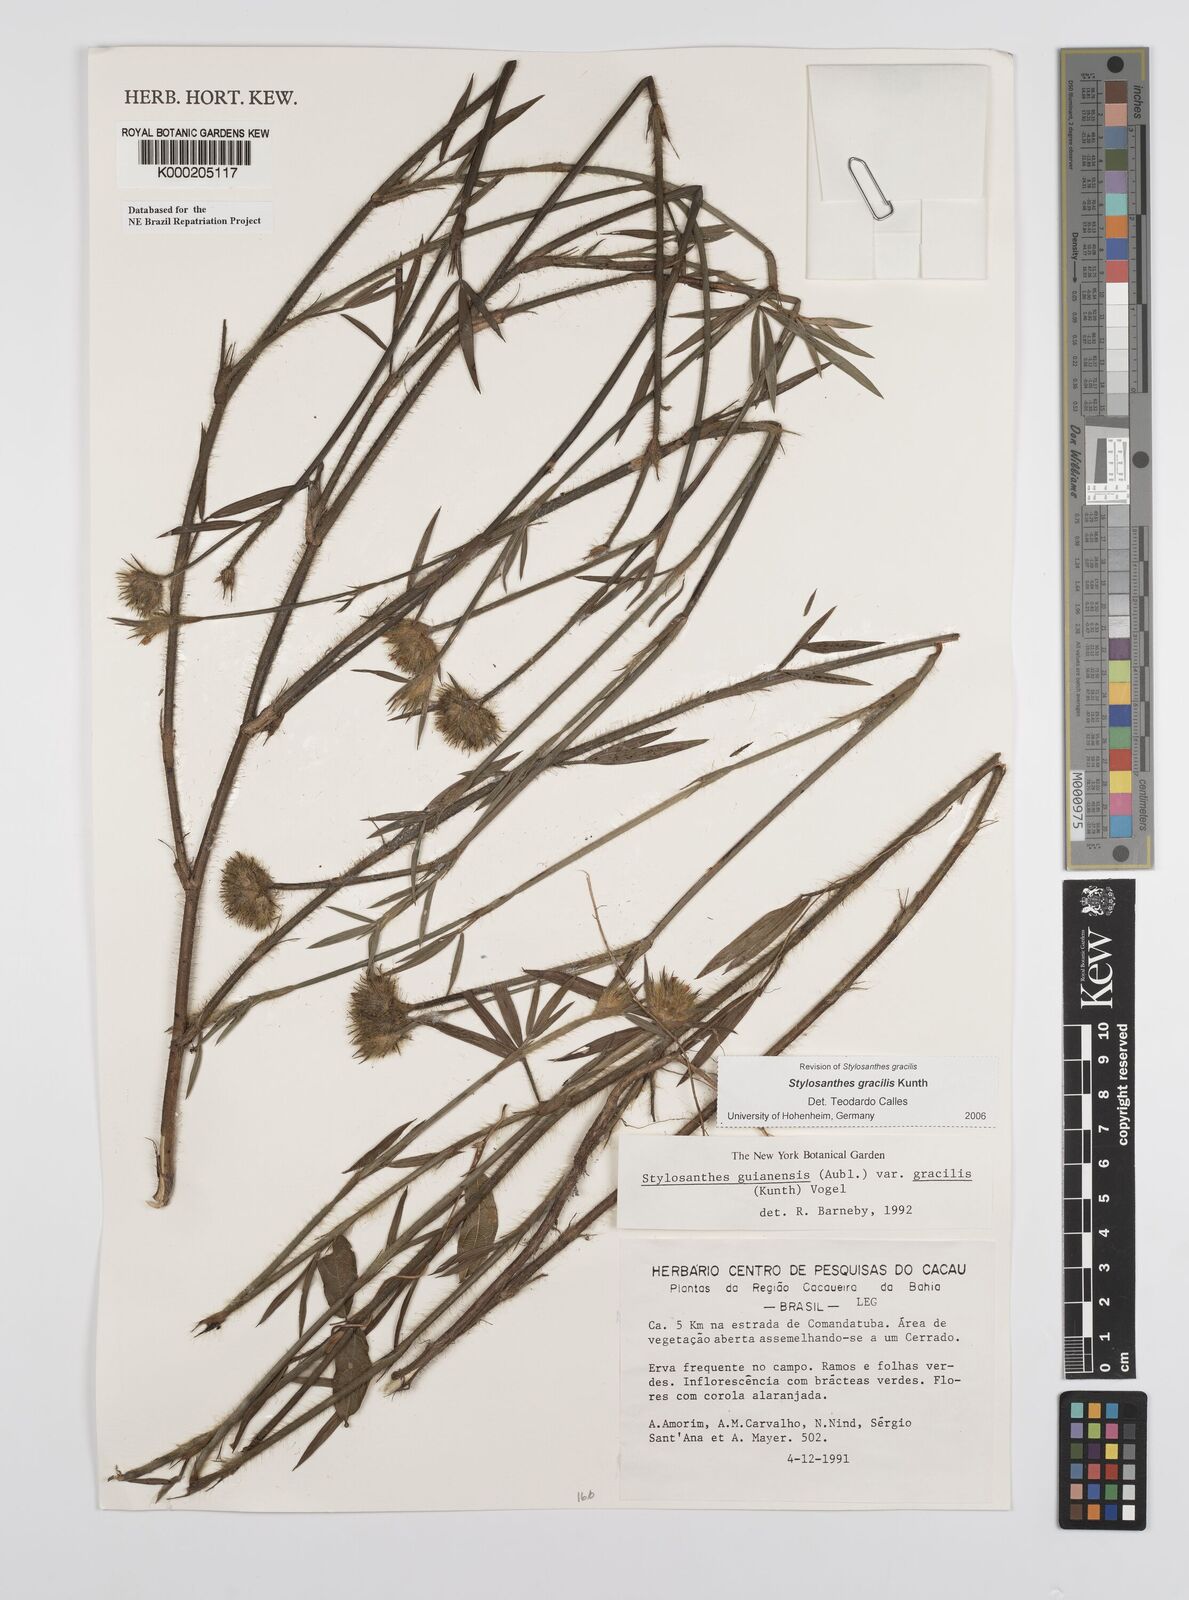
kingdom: Plantae
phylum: Tracheophyta
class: Magnoliopsida
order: Fabales
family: Fabaceae
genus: Stylosanthes
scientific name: Stylosanthes guianensis
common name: Pencil flower
